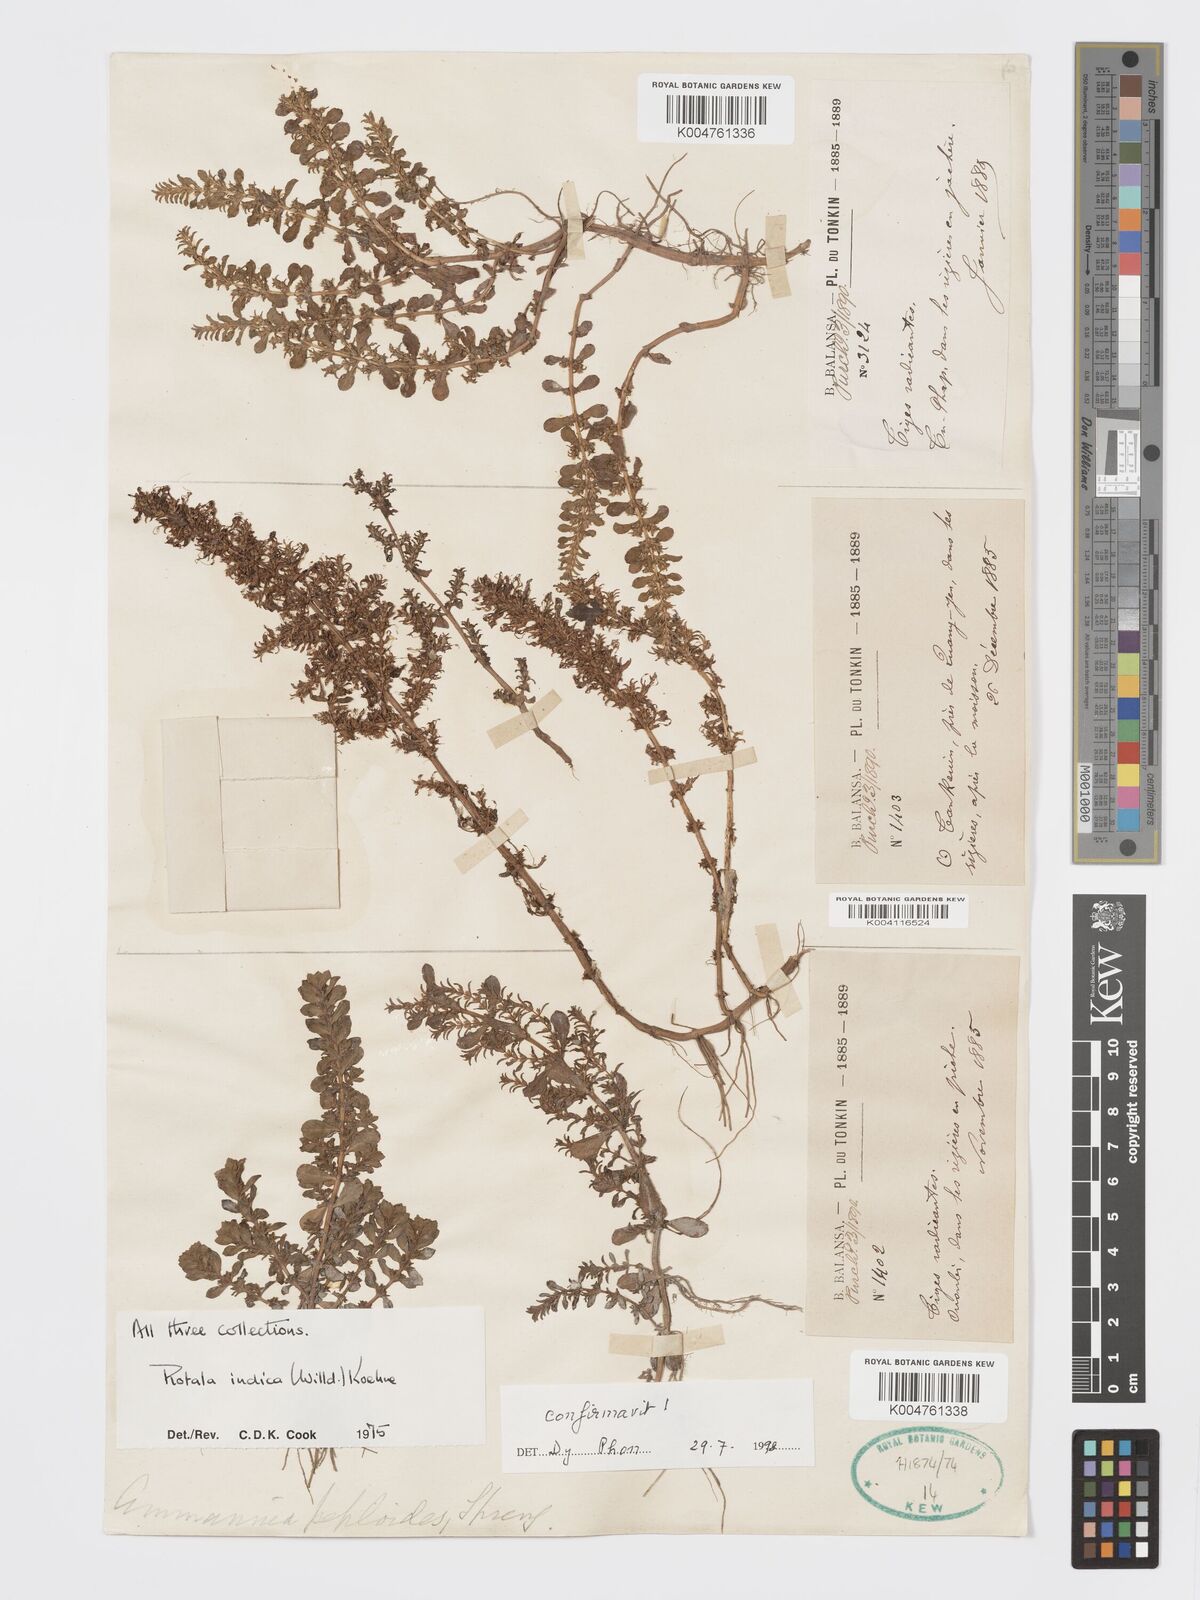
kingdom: Plantae
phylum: Tracheophyta
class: Magnoliopsida
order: Myrtales
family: Lythraceae
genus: Rotala
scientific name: Rotala indica
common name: Indian toothcup
